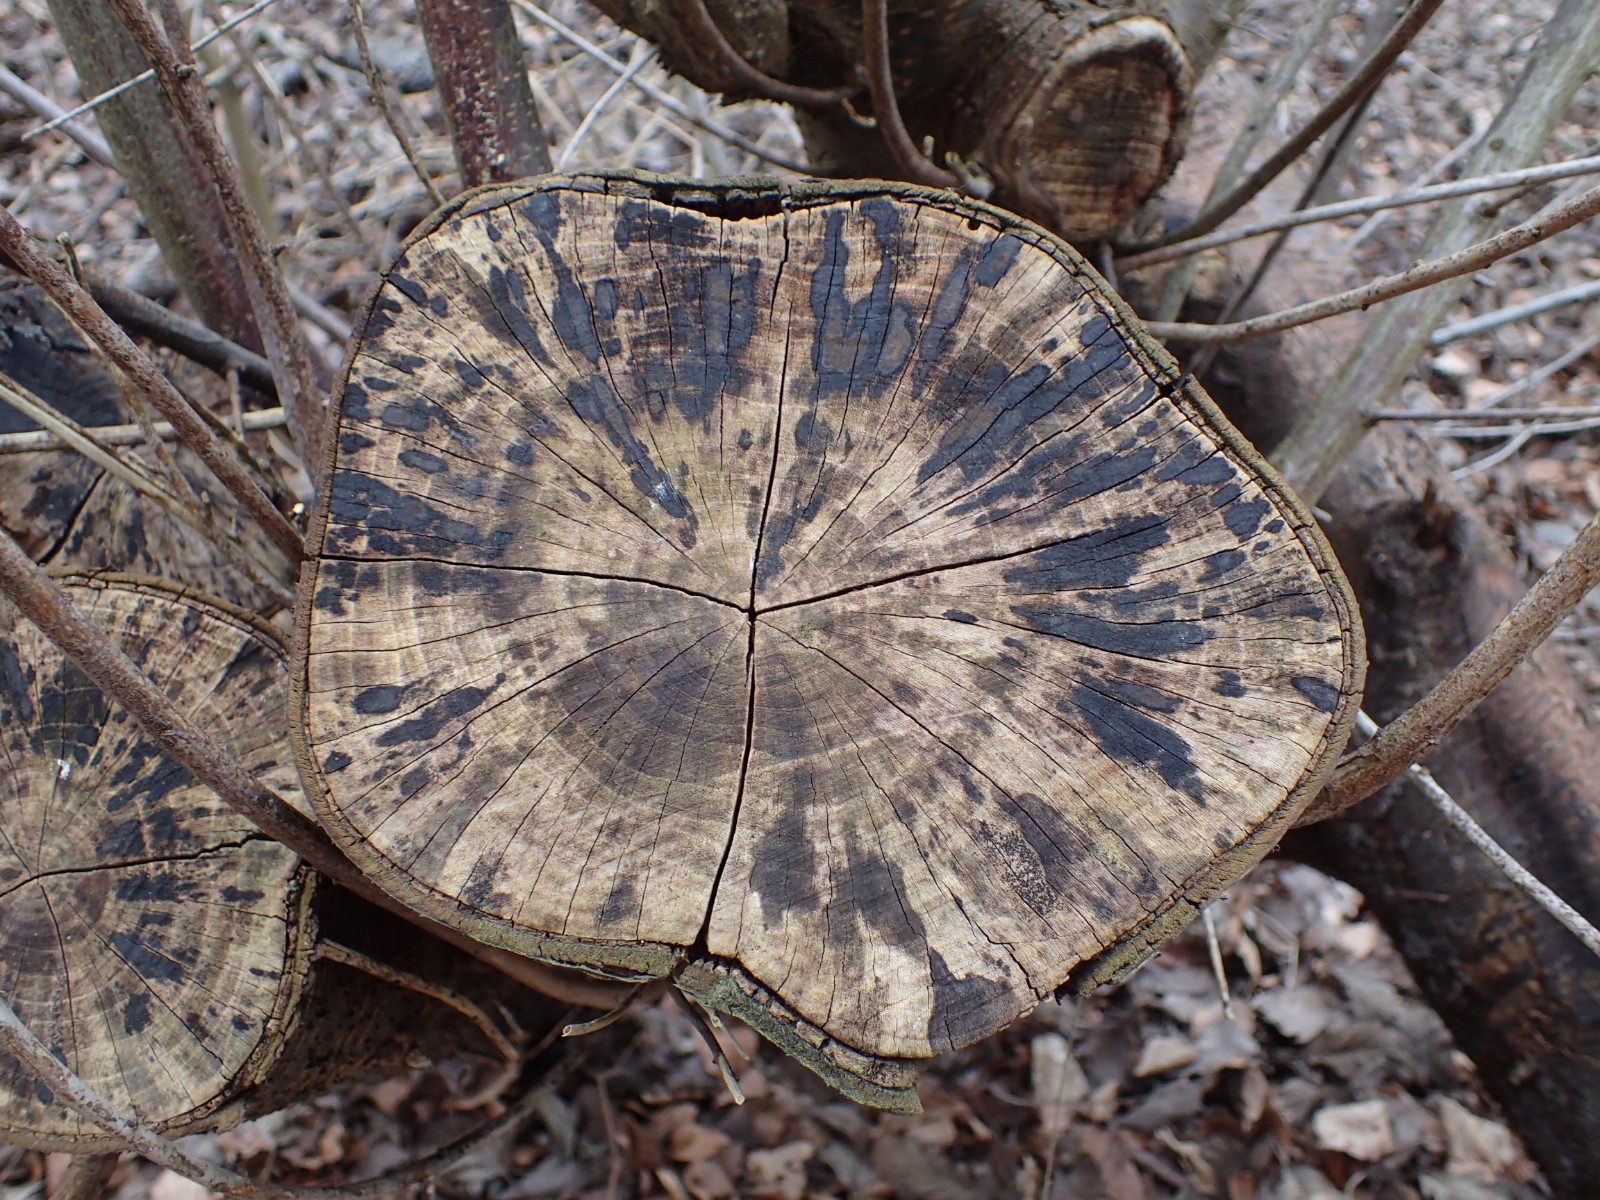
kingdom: Fungi
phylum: Ascomycota
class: Sordariomycetes
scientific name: Sordariomycetes
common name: kernesvampklassen
